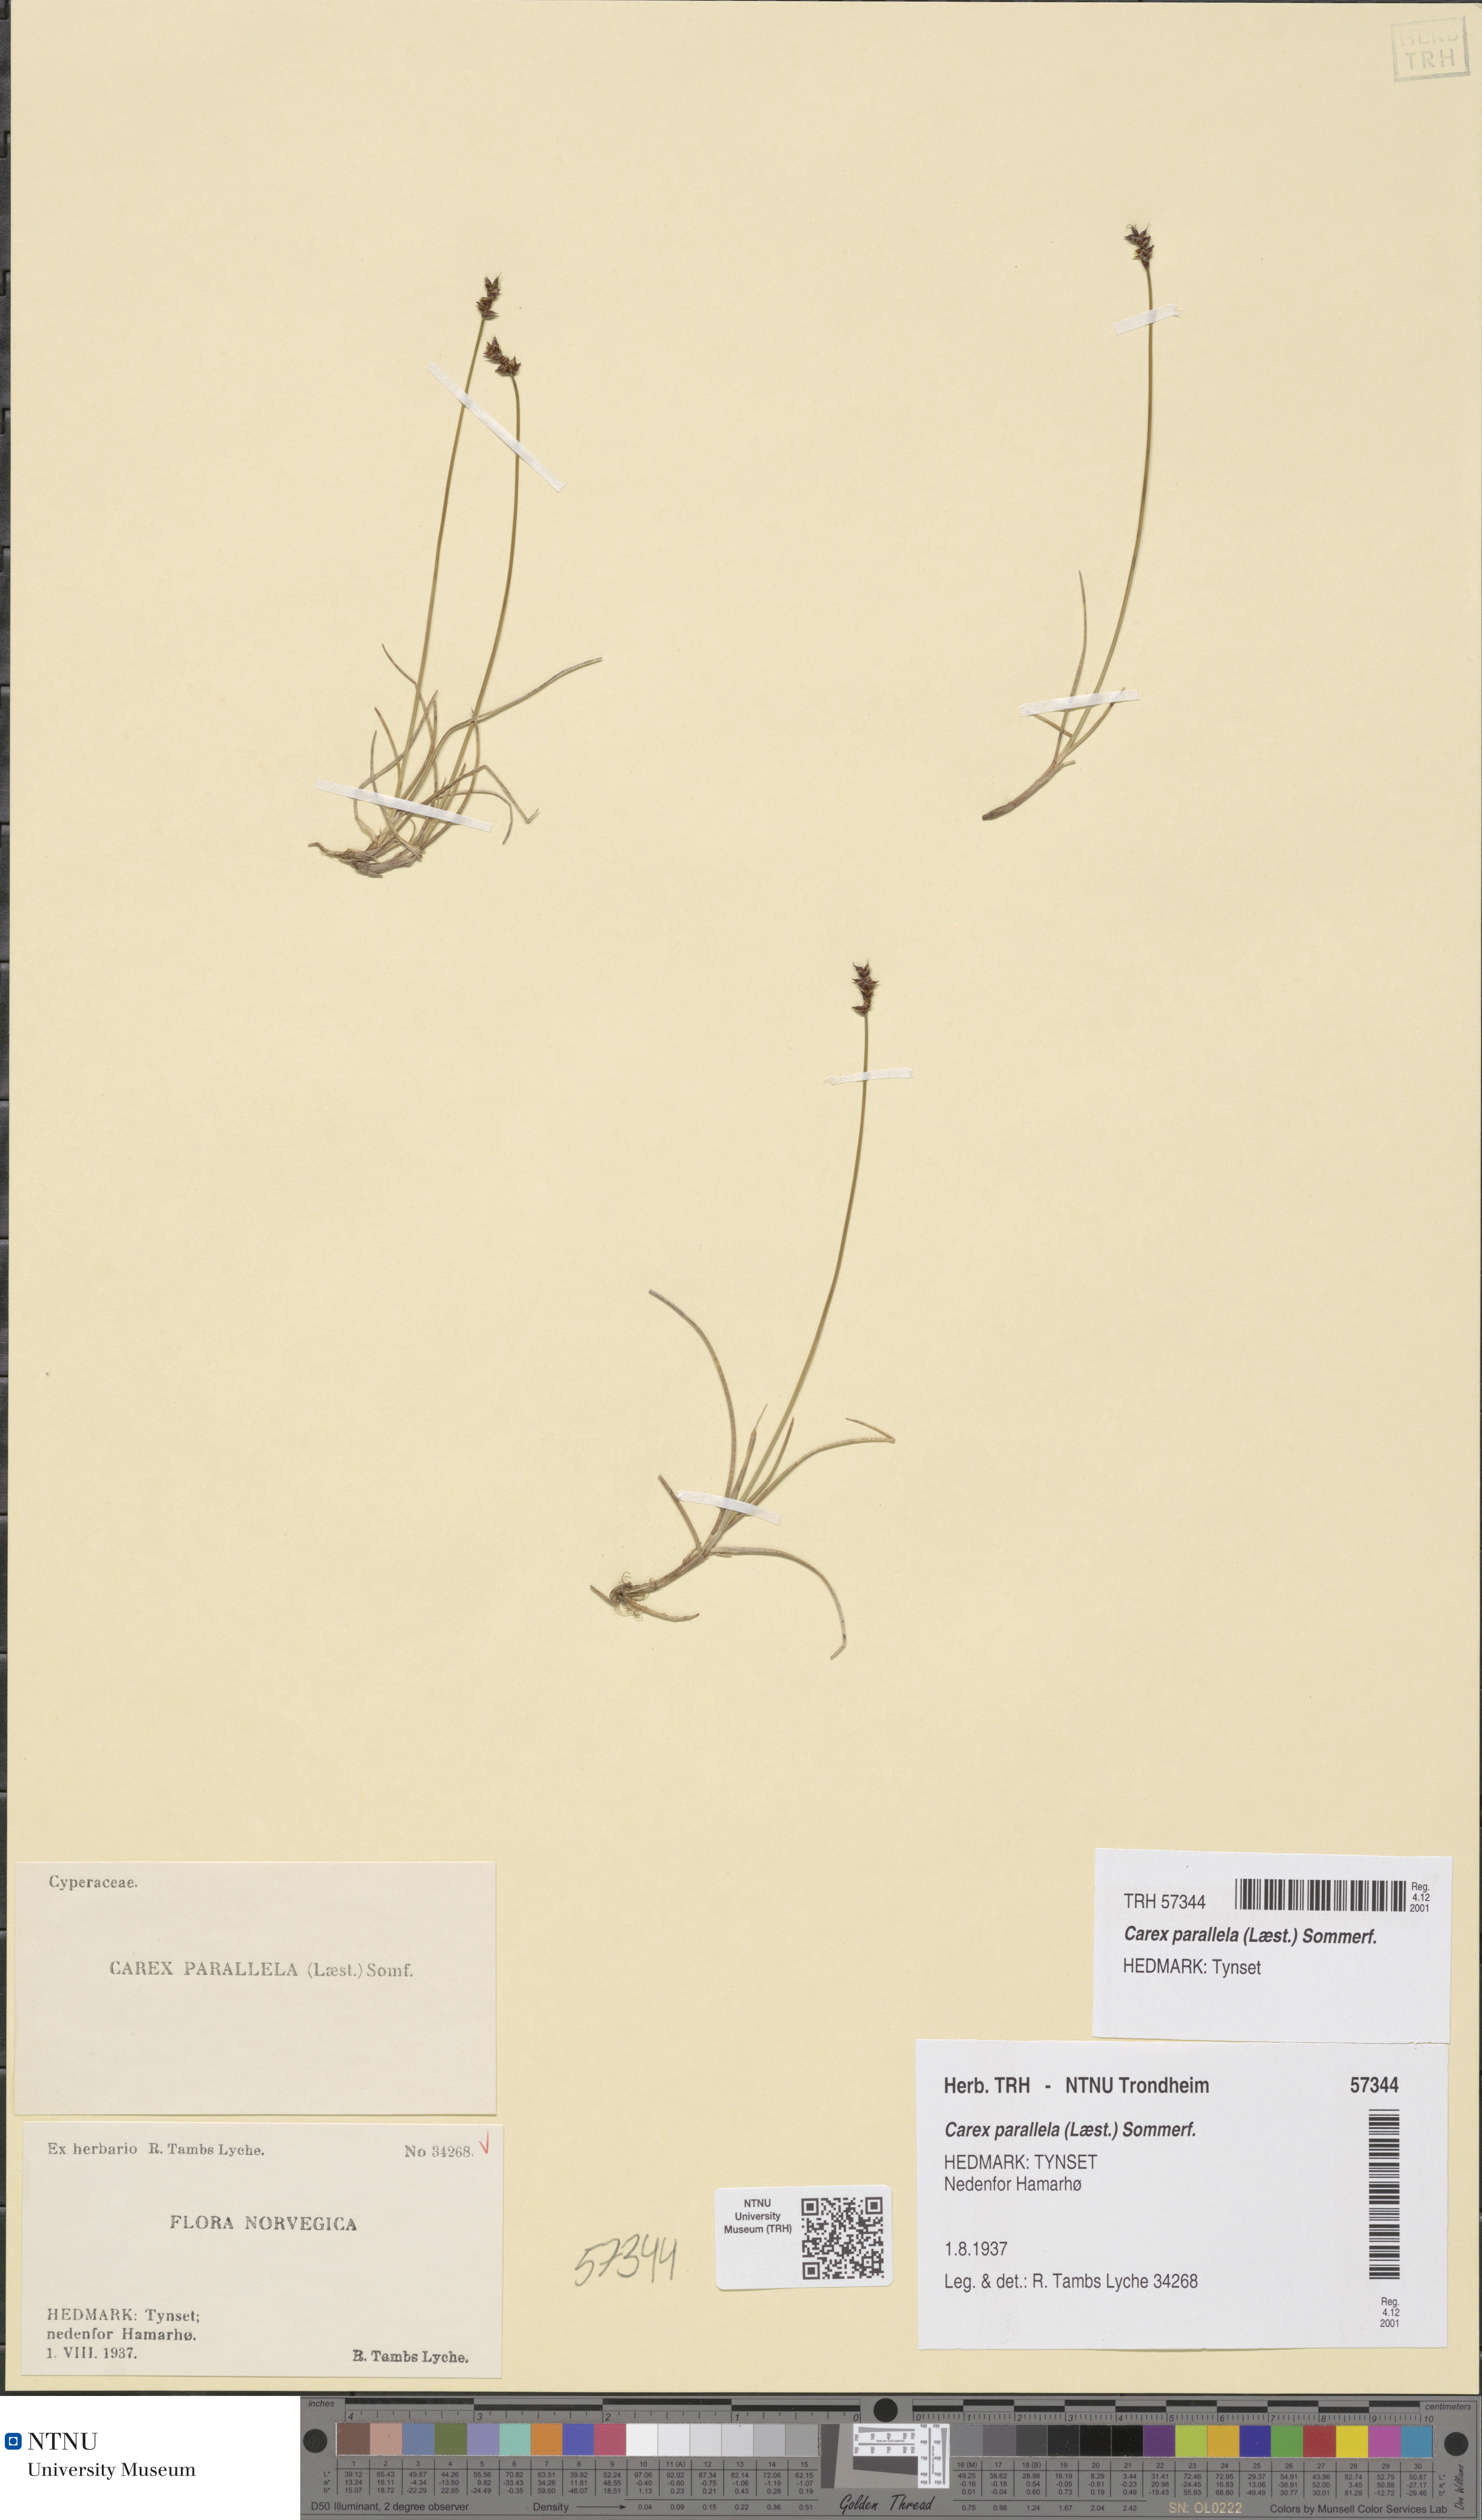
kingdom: Plantae
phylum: Tracheophyta
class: Liliopsida
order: Poales
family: Cyperaceae
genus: Carex
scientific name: Carex parallela
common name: Parallel sedge
